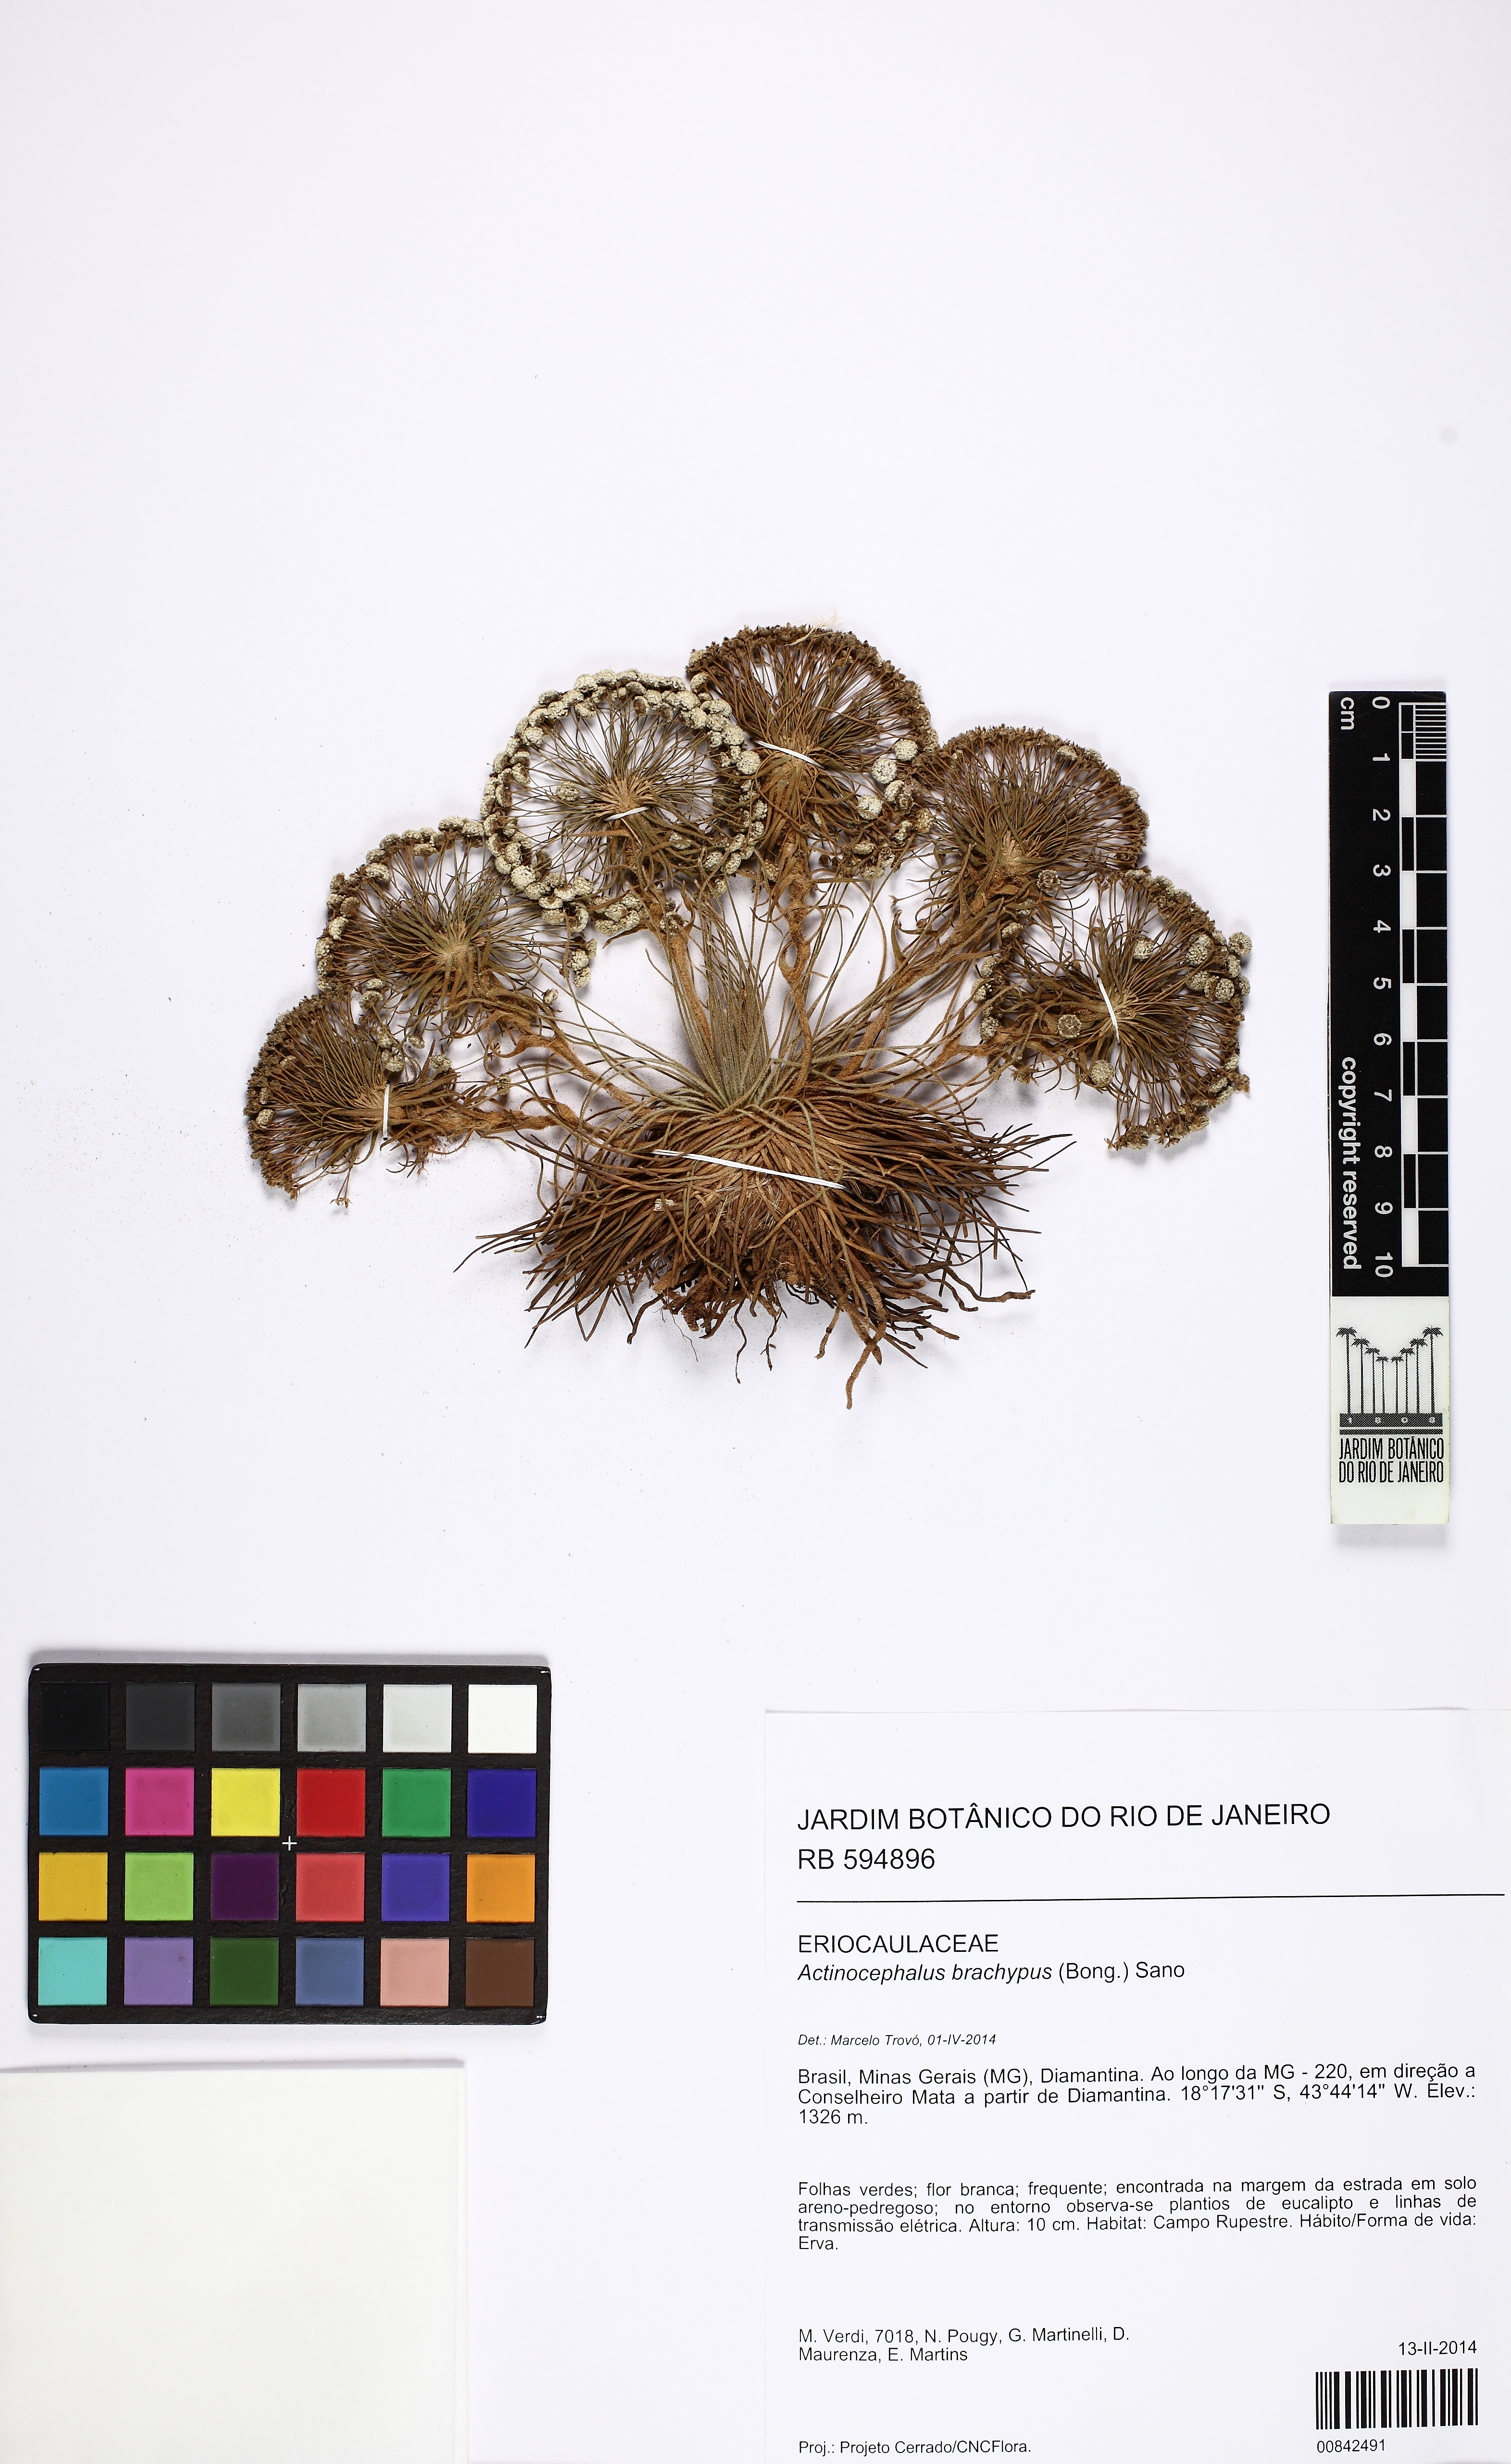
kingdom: Plantae
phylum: Tracheophyta
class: Liliopsida
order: Poales
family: Eriocaulaceae
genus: Paepalanthus
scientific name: Paepalanthus brachypus
